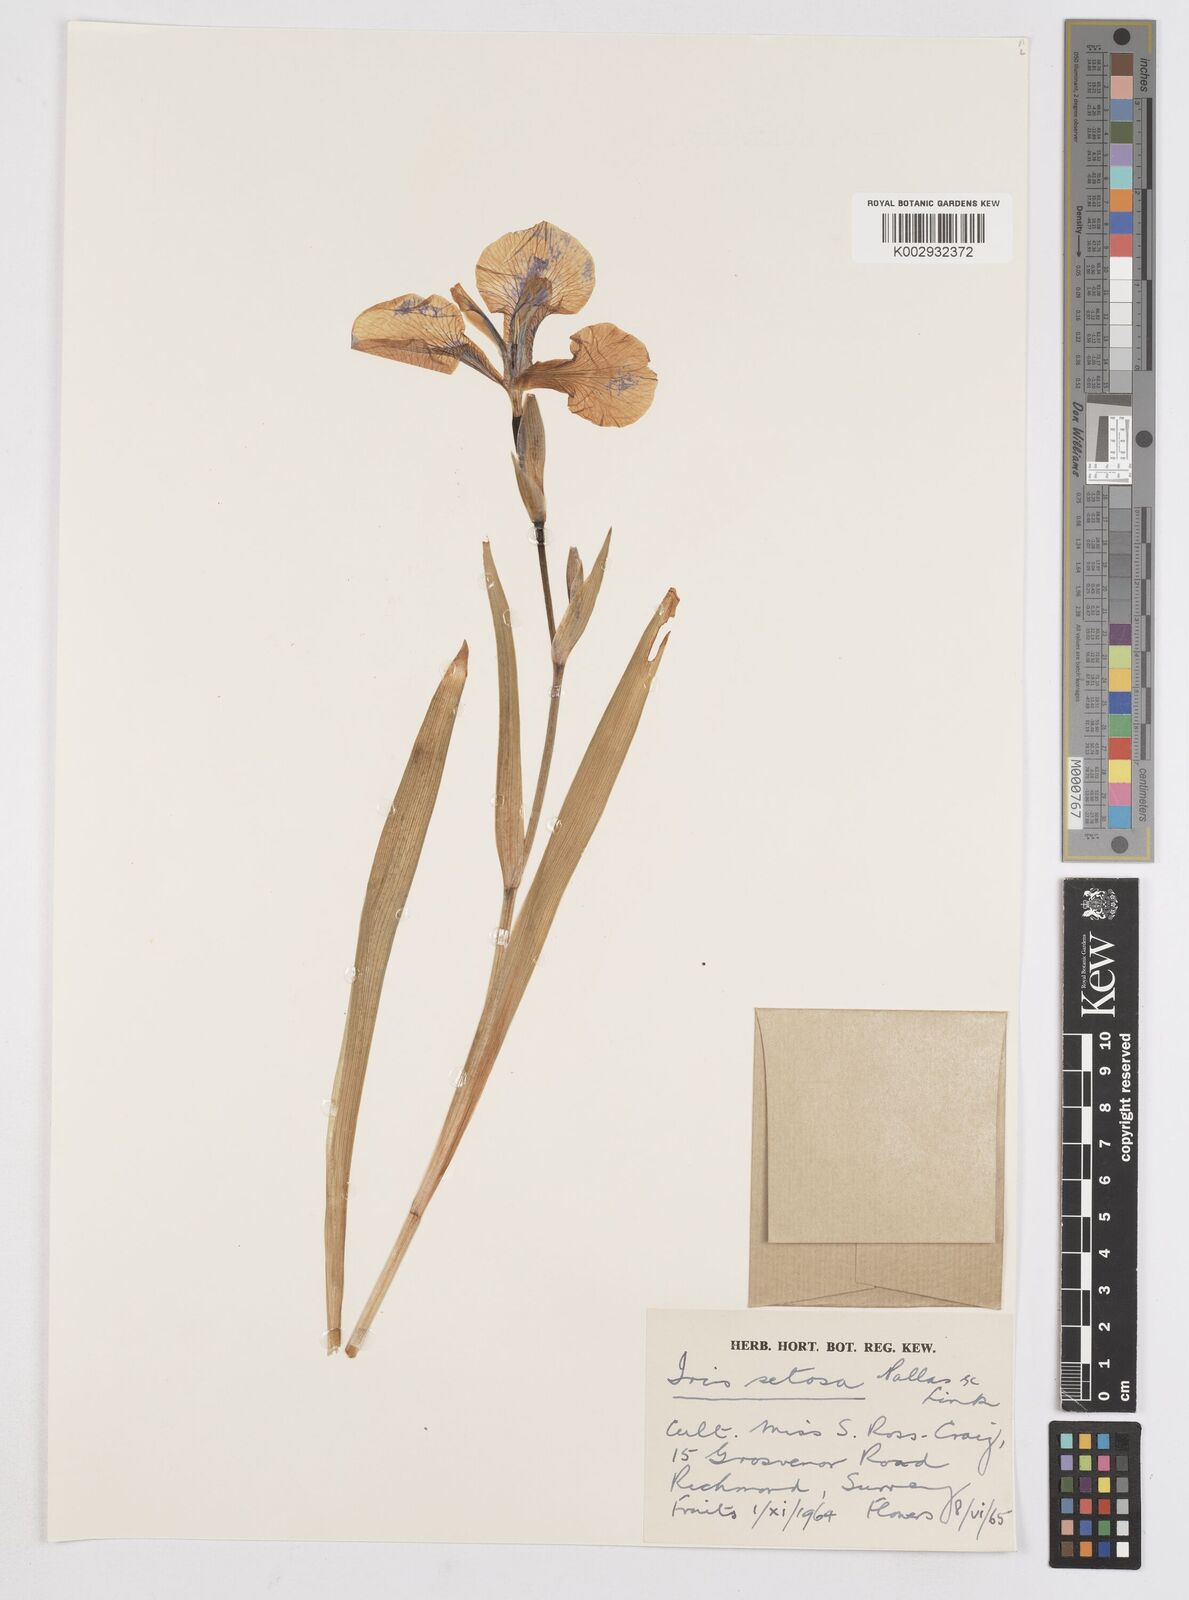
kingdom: Plantae
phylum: Tracheophyta
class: Liliopsida
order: Asparagales
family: Iridaceae
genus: Iris
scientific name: Iris setosa
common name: Arctic blue flag
